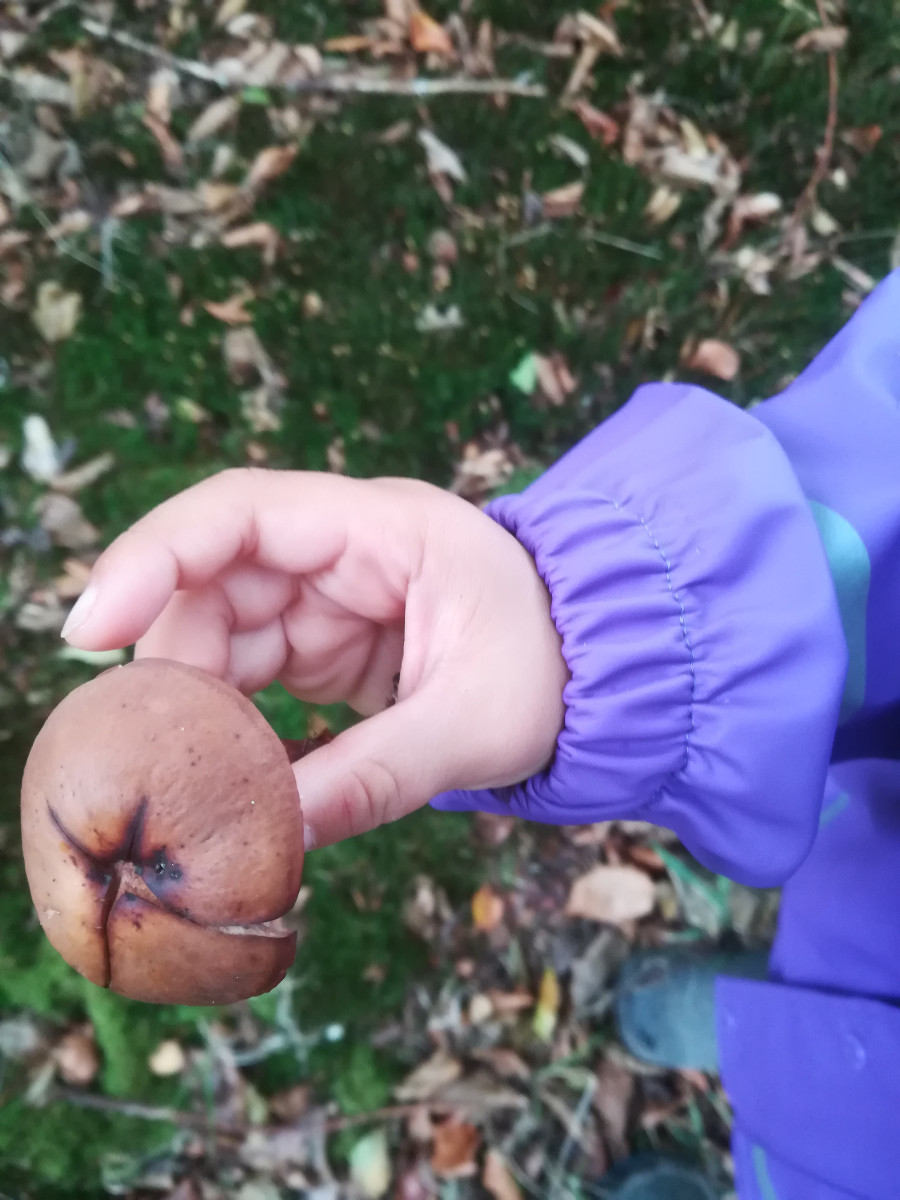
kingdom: Fungi
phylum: Basidiomycota
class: Agaricomycetes
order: Agaricales
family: Omphalotaceae
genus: Gymnopus
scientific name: Gymnopus fusipes
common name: tenstokket fladhat
